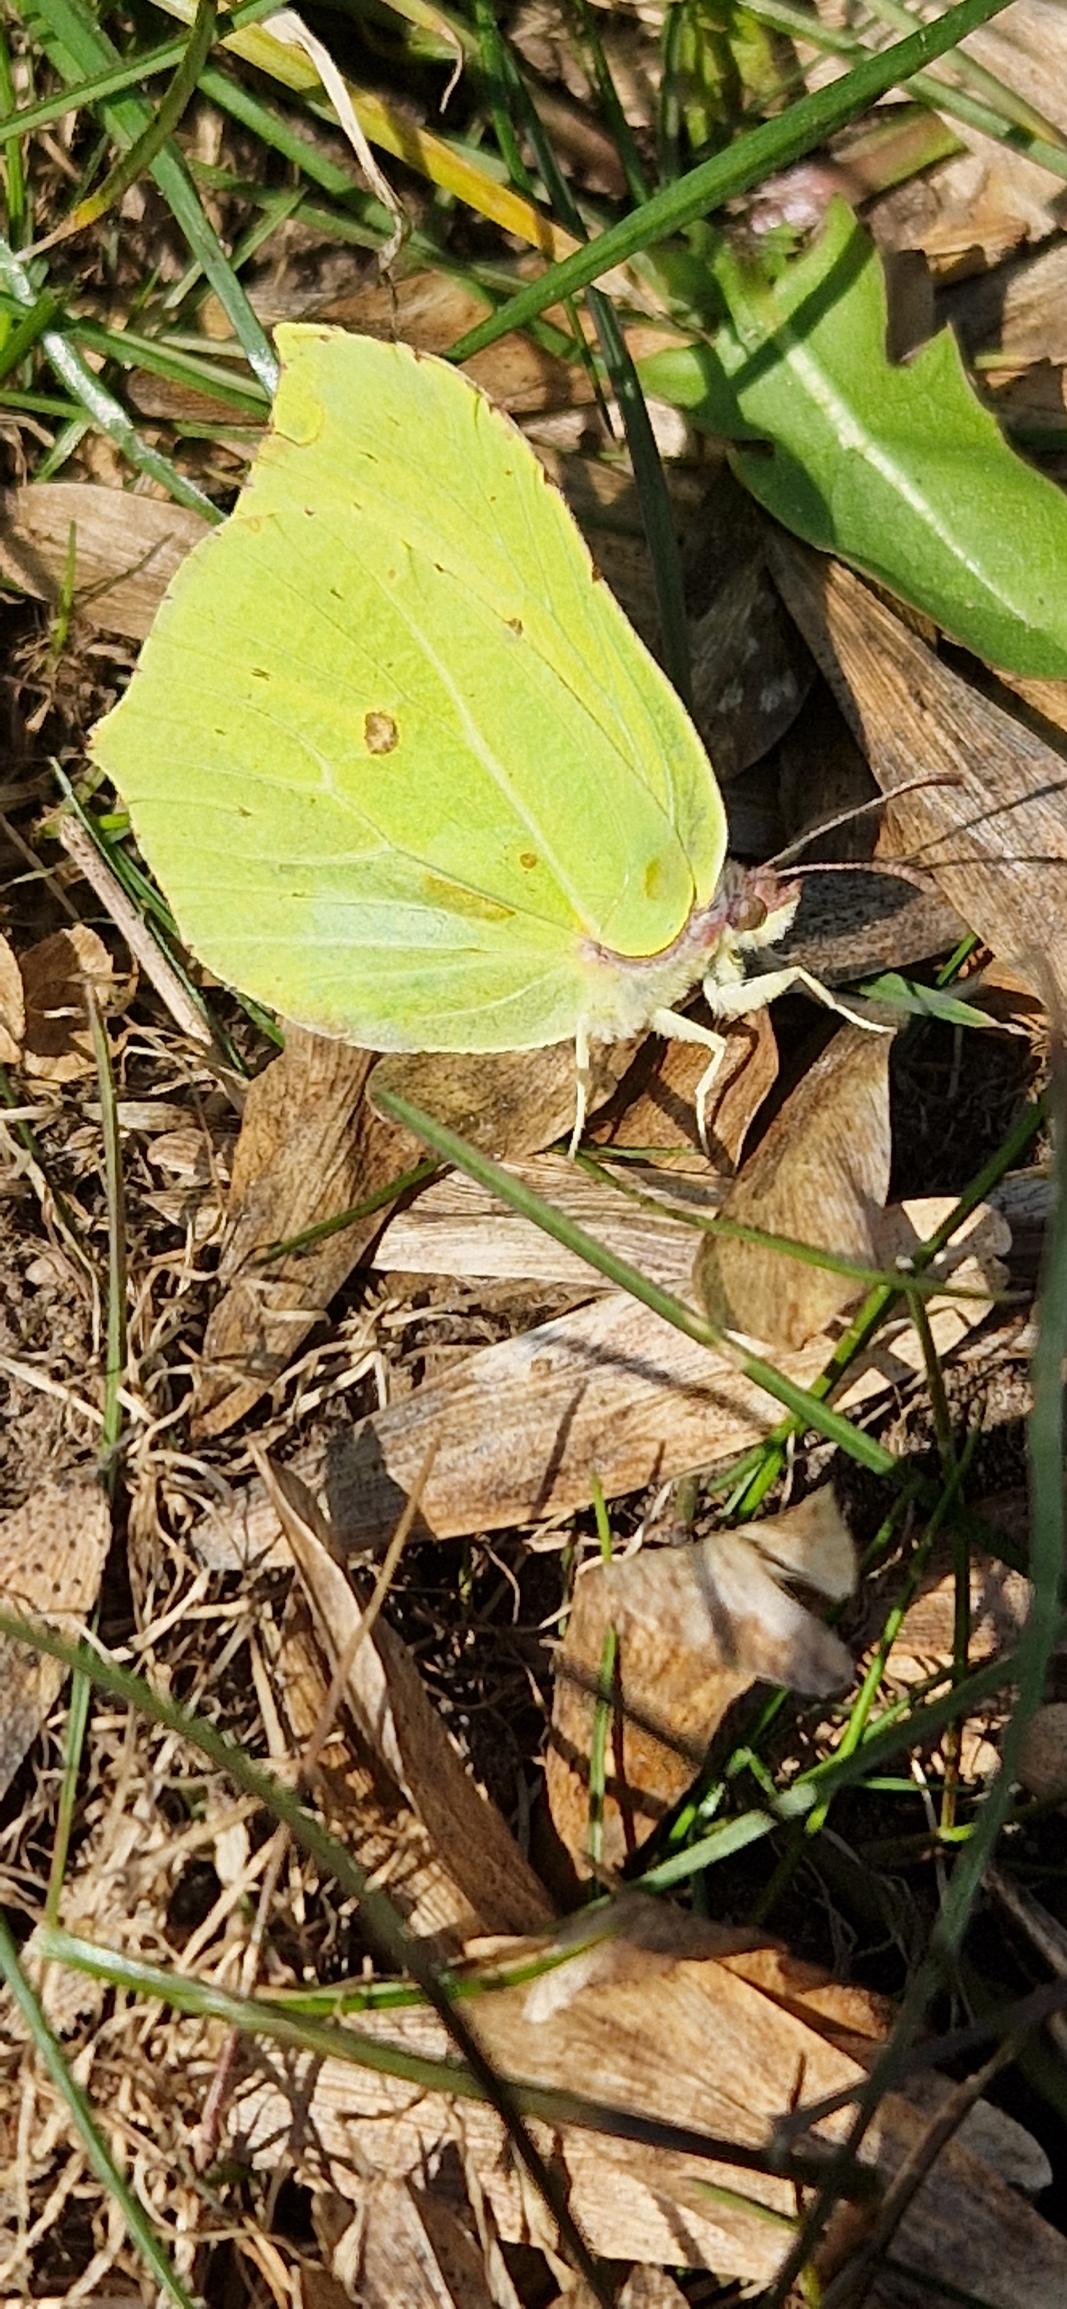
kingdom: Animalia
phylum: Arthropoda
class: Insecta
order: Lepidoptera
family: Pieridae
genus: Gonepteryx
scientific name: Gonepteryx rhamni
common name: Citronsommerfugl
